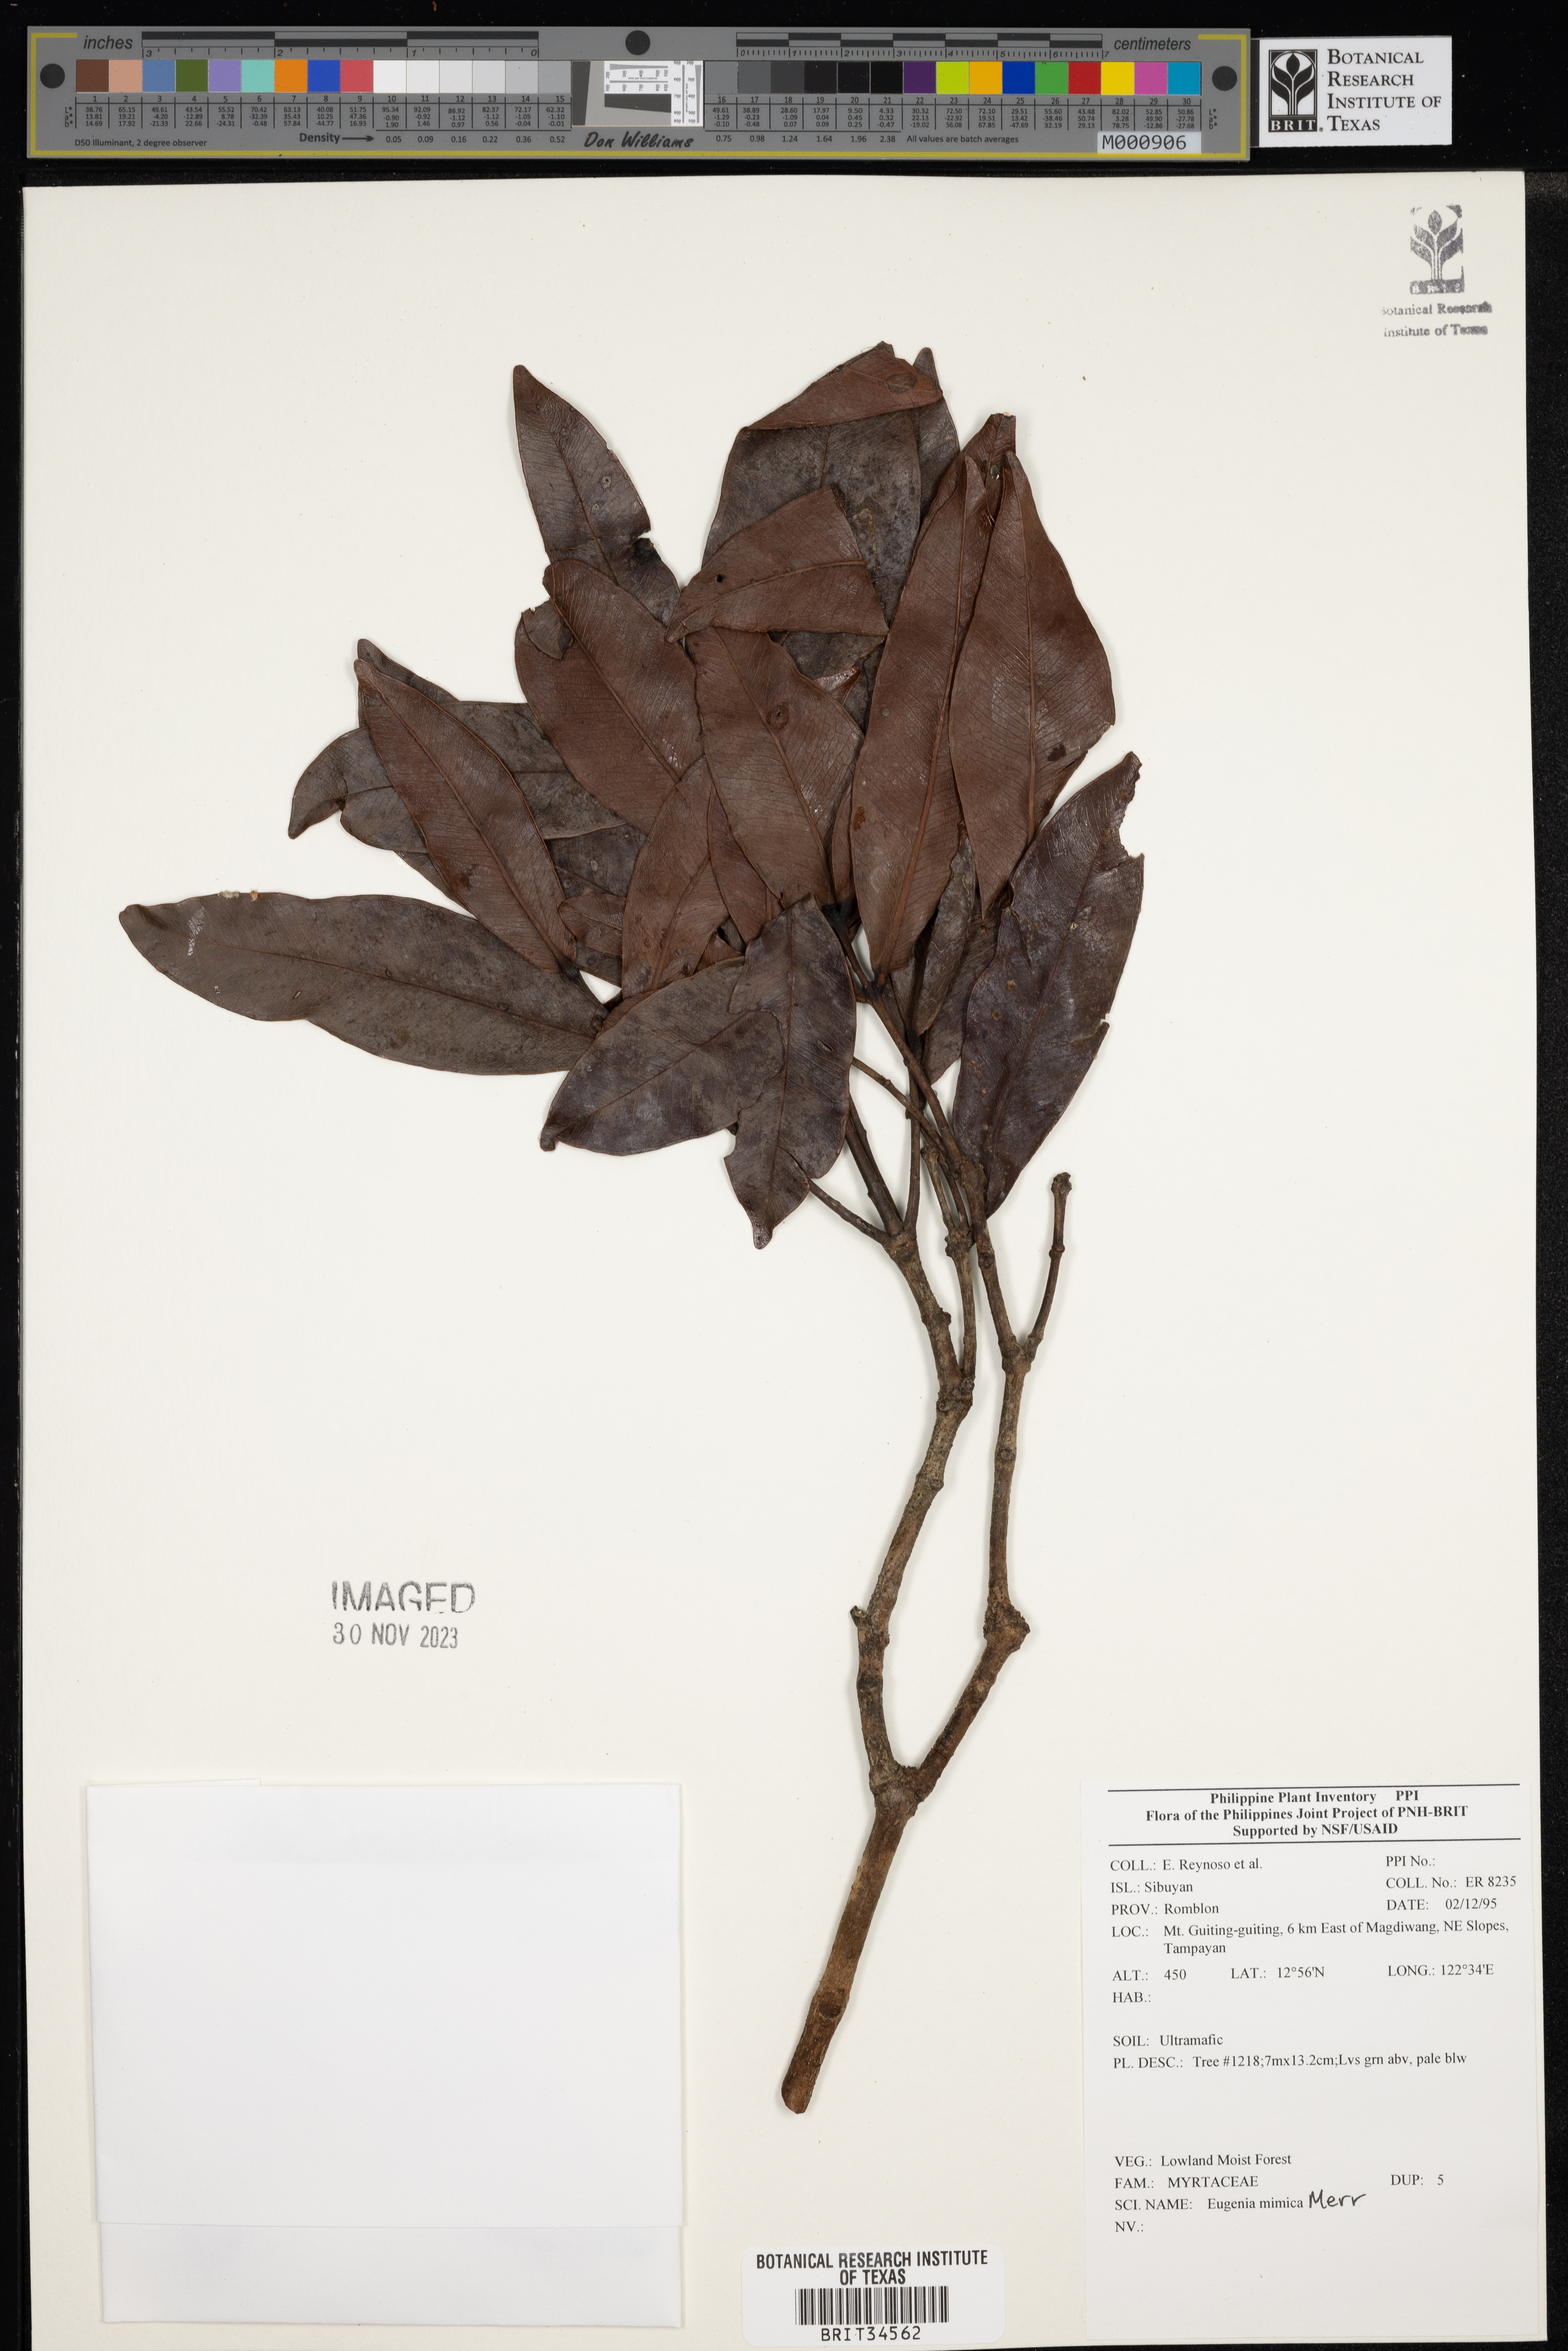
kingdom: Plantae
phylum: Tracheophyta
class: Magnoliopsida
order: Myrtales
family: Myrtaceae
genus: Eugenia
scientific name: Eugenia
